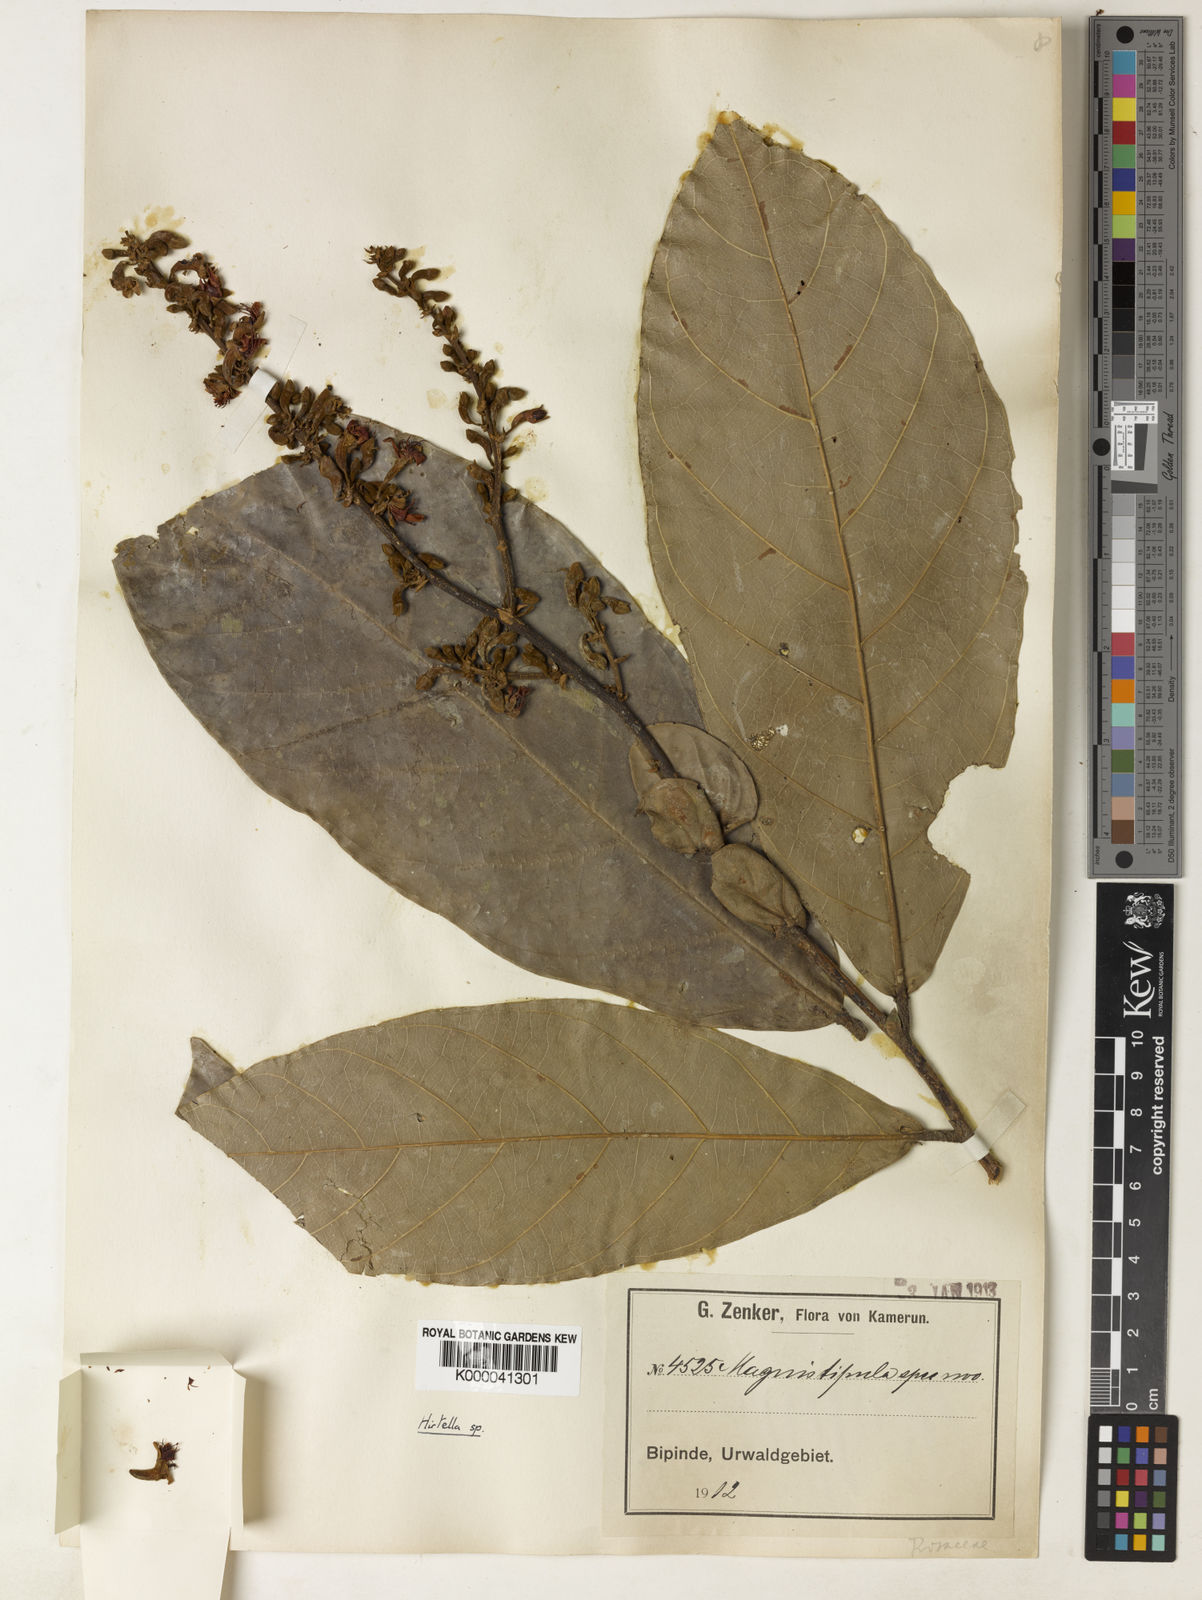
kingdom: Plantae
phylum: Tracheophyta
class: Magnoliopsida
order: Malpighiales
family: Chrysobalanaceae
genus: Magnistipula
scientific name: Magnistipula zenkeri
